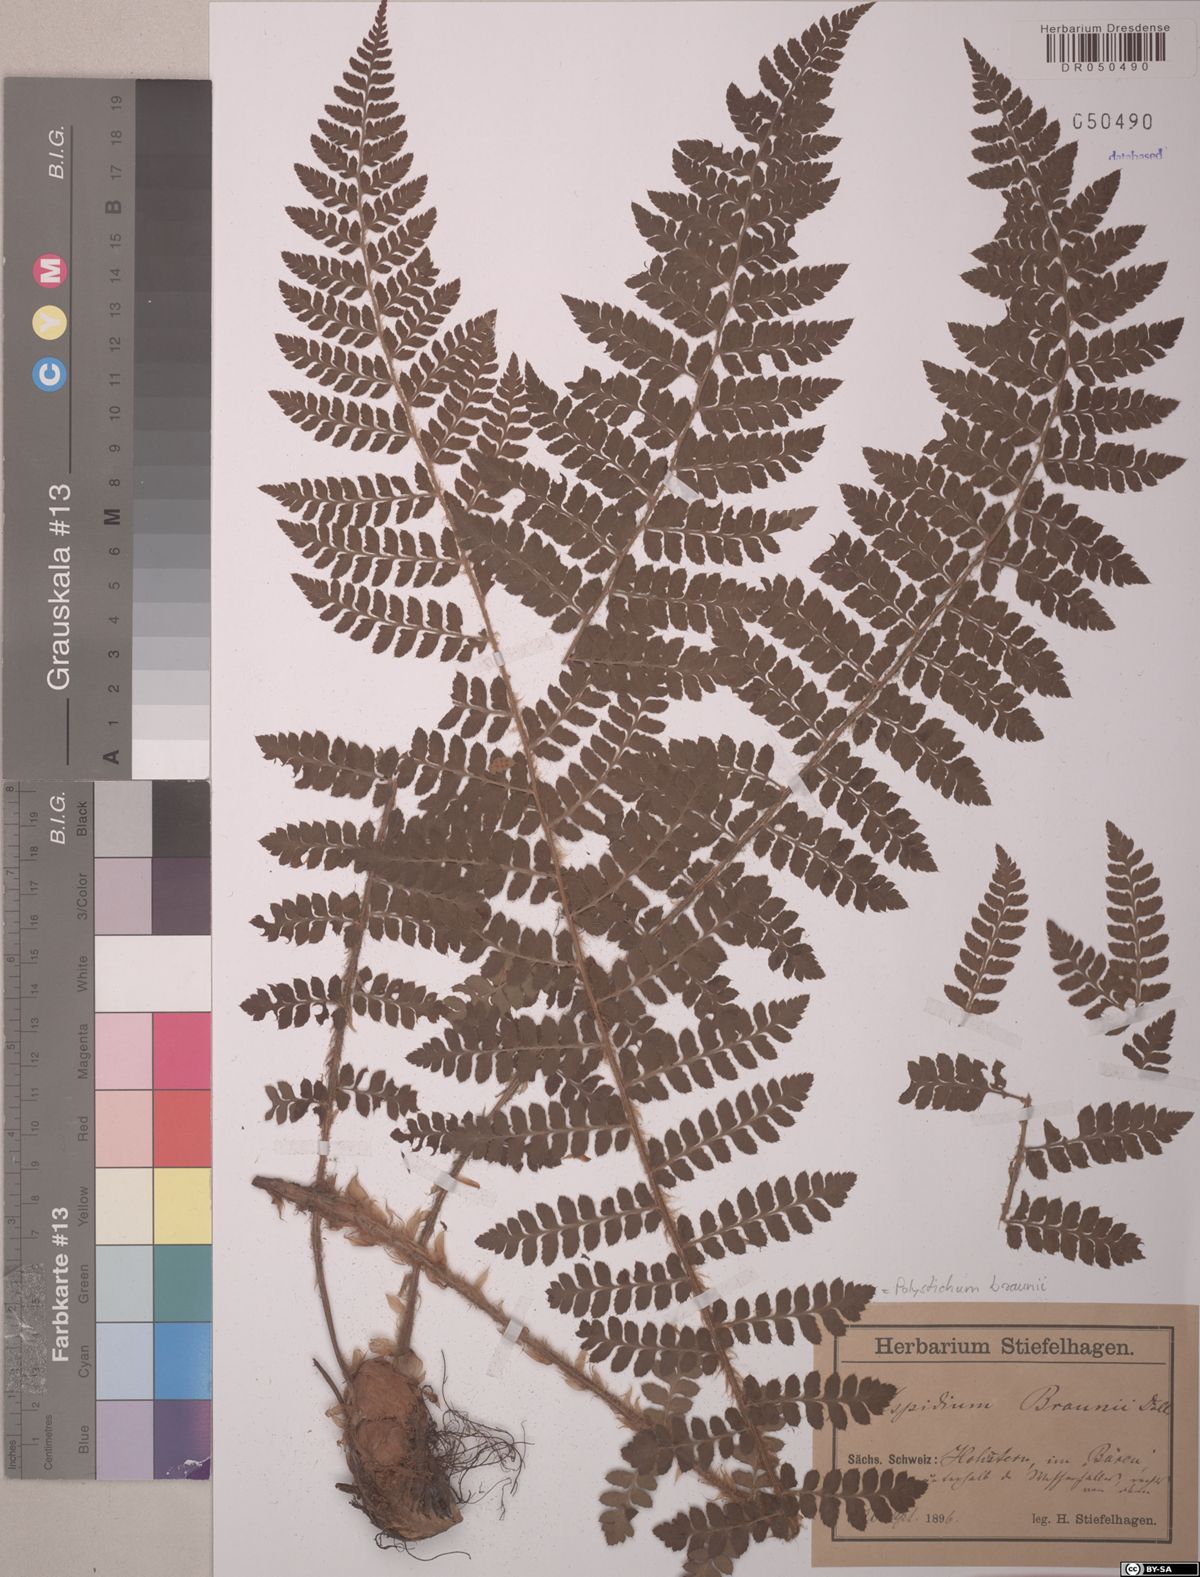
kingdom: Plantae
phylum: Tracheophyta
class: Polypodiopsida
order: Polypodiales
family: Dryopteridaceae
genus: Polystichum
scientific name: Polystichum braunii
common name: Braun's holly fern
